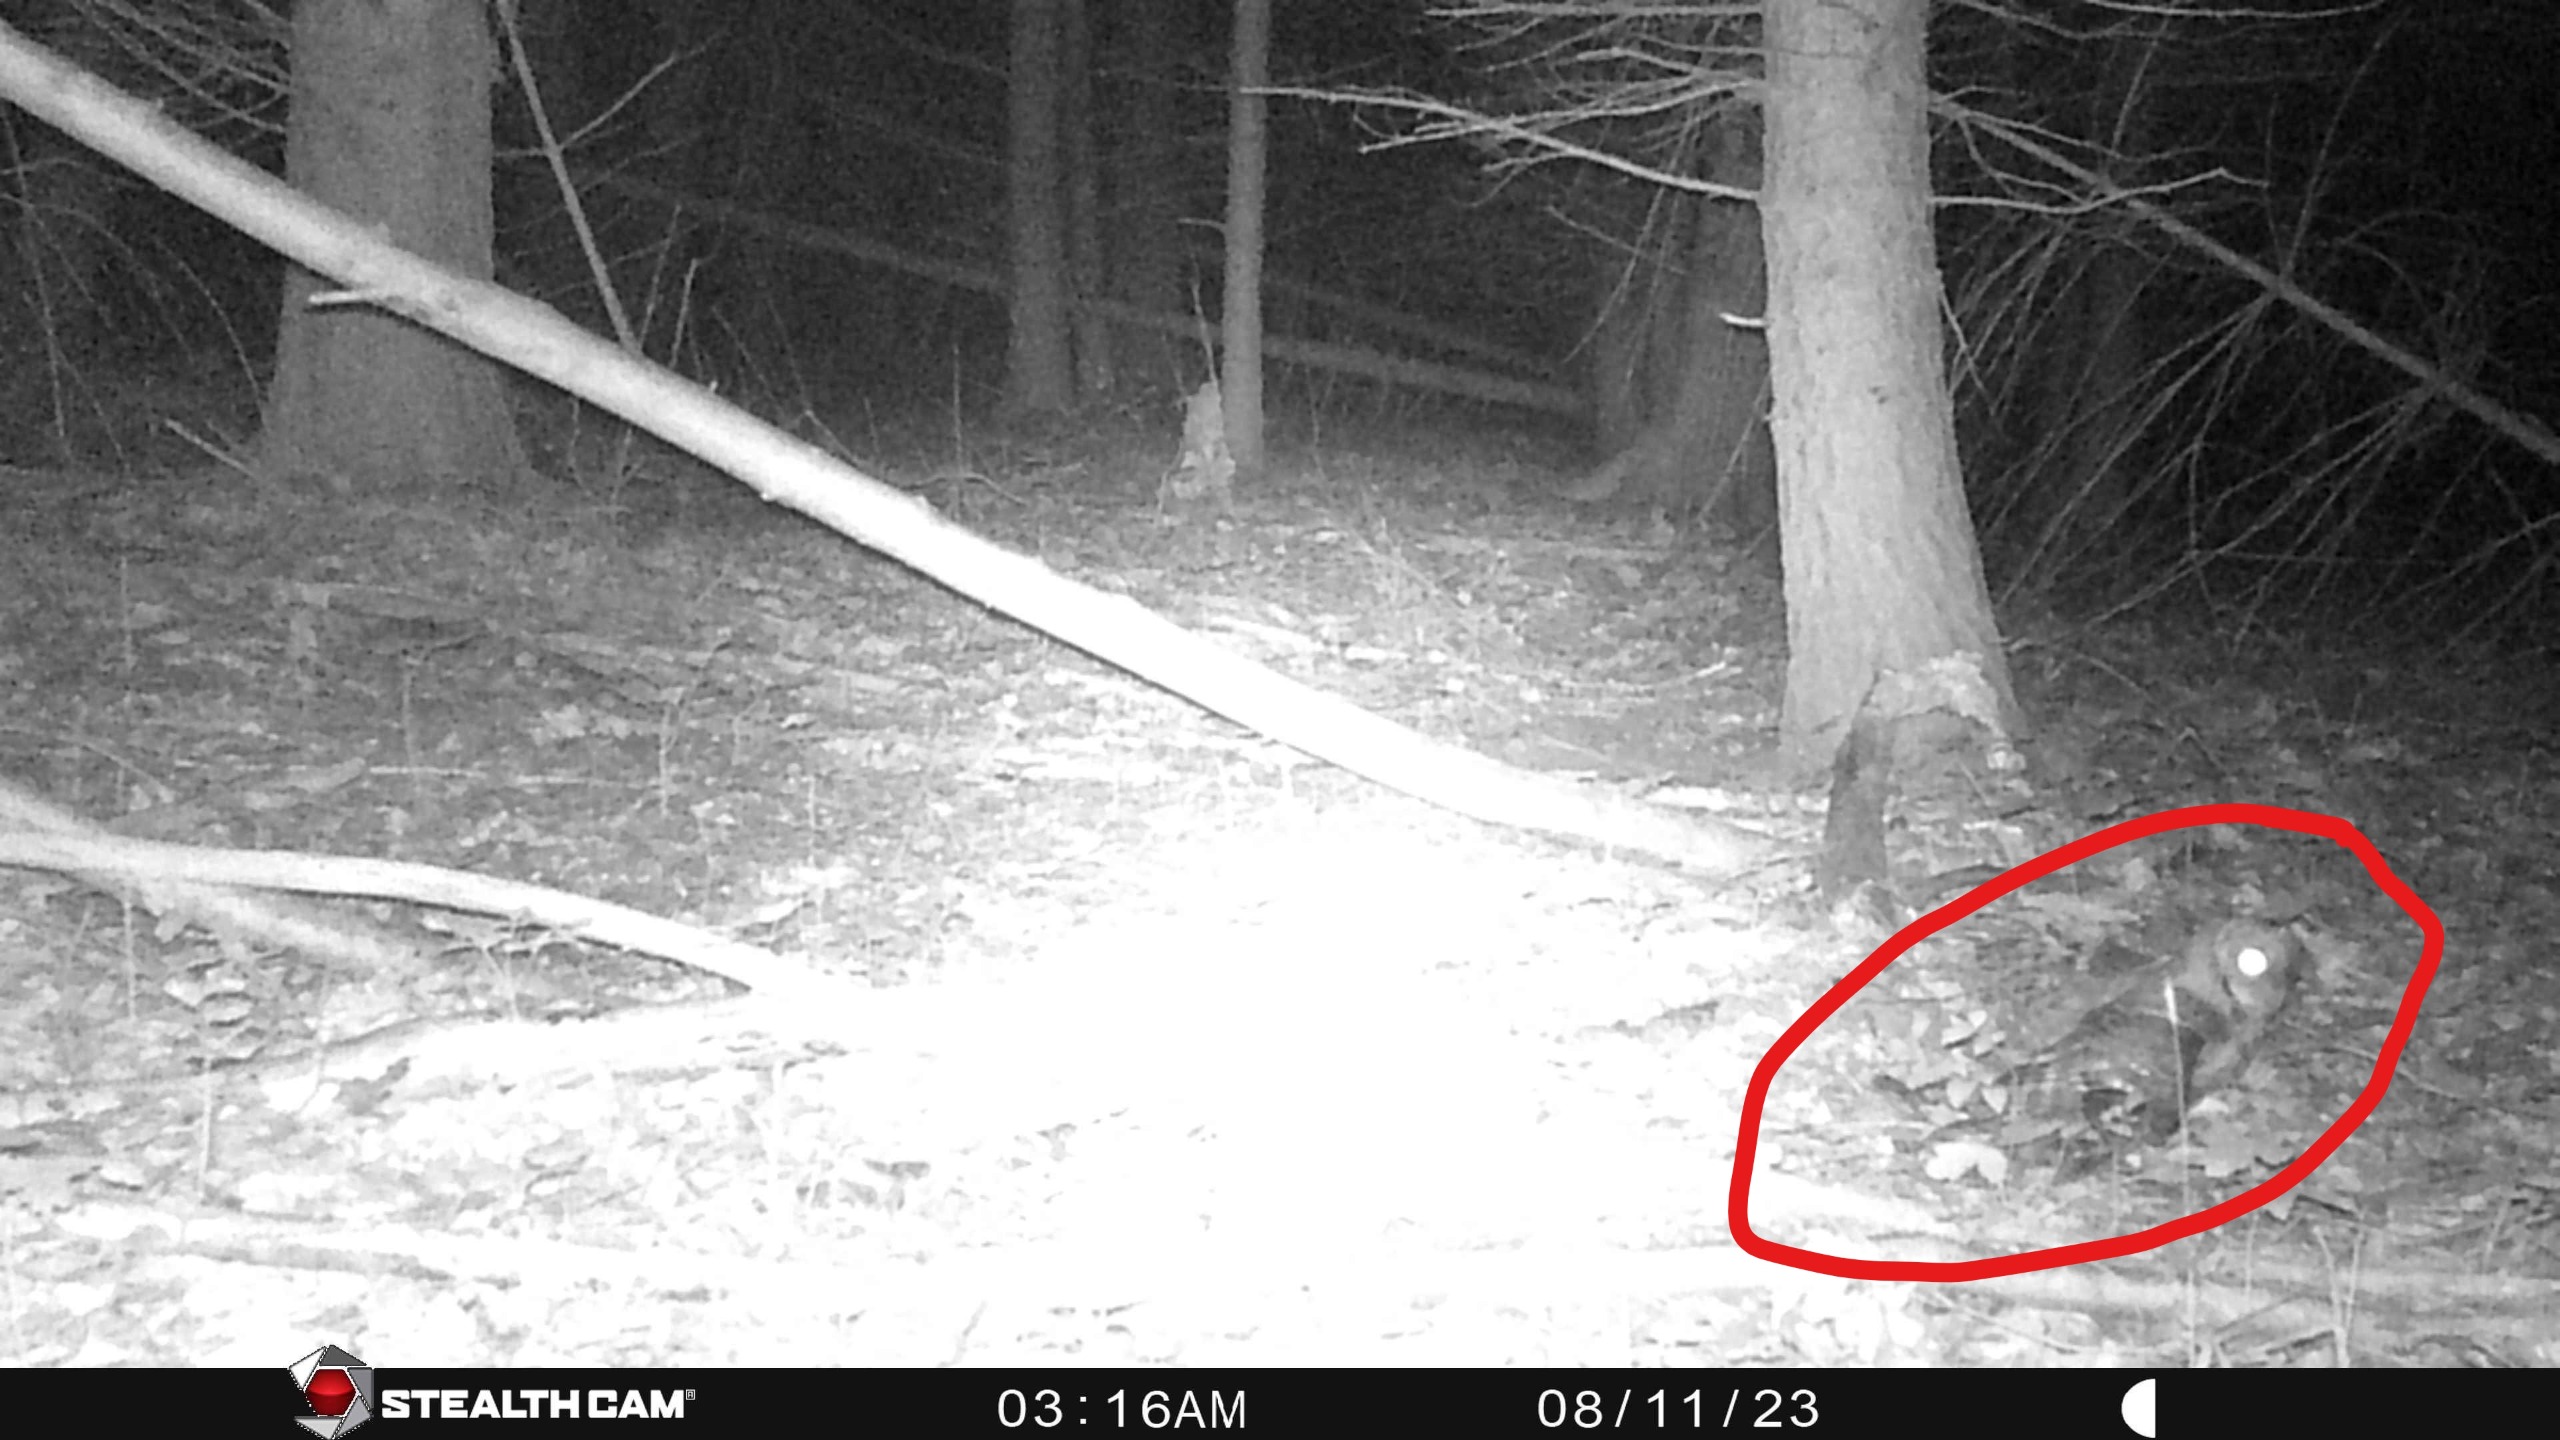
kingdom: Animalia
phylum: Chordata
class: Aves
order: Strigiformes
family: Strigidae
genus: Strix
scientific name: Strix aluco
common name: Natugle
